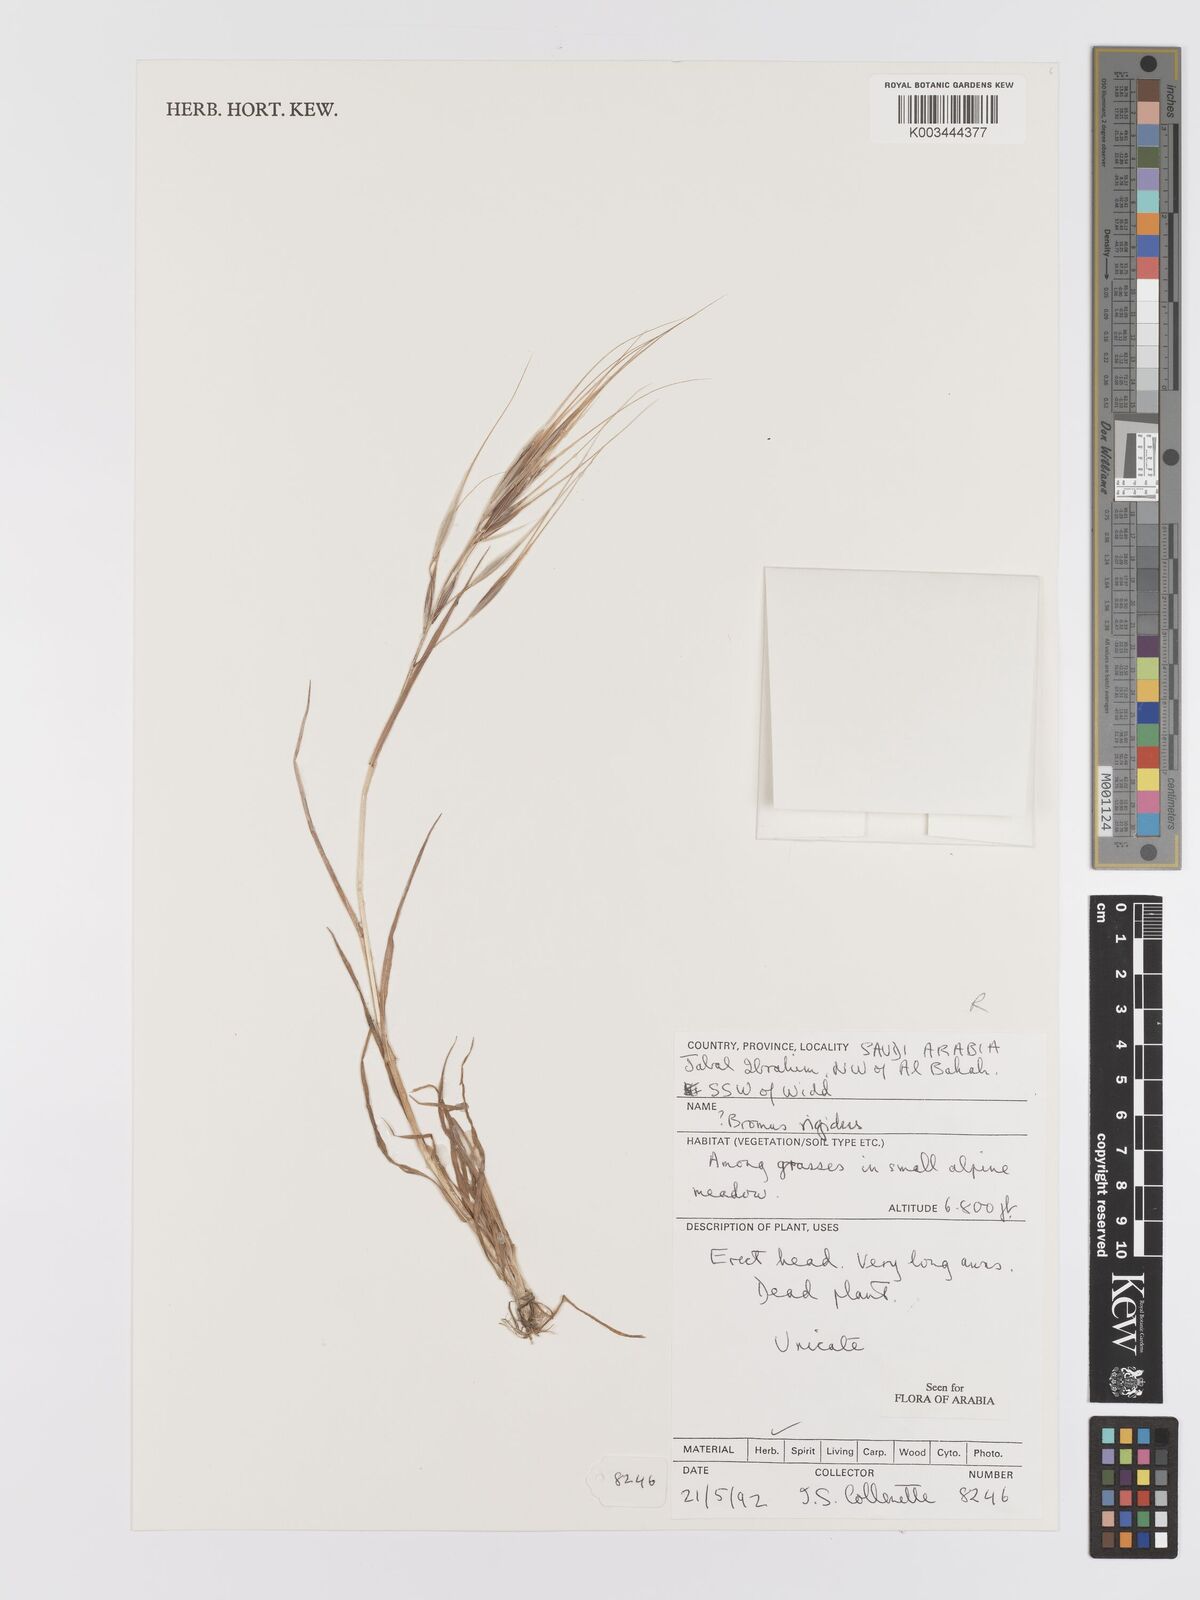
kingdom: Plantae
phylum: Tracheophyta
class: Liliopsida
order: Poales
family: Poaceae
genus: Bromus
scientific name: Bromus
